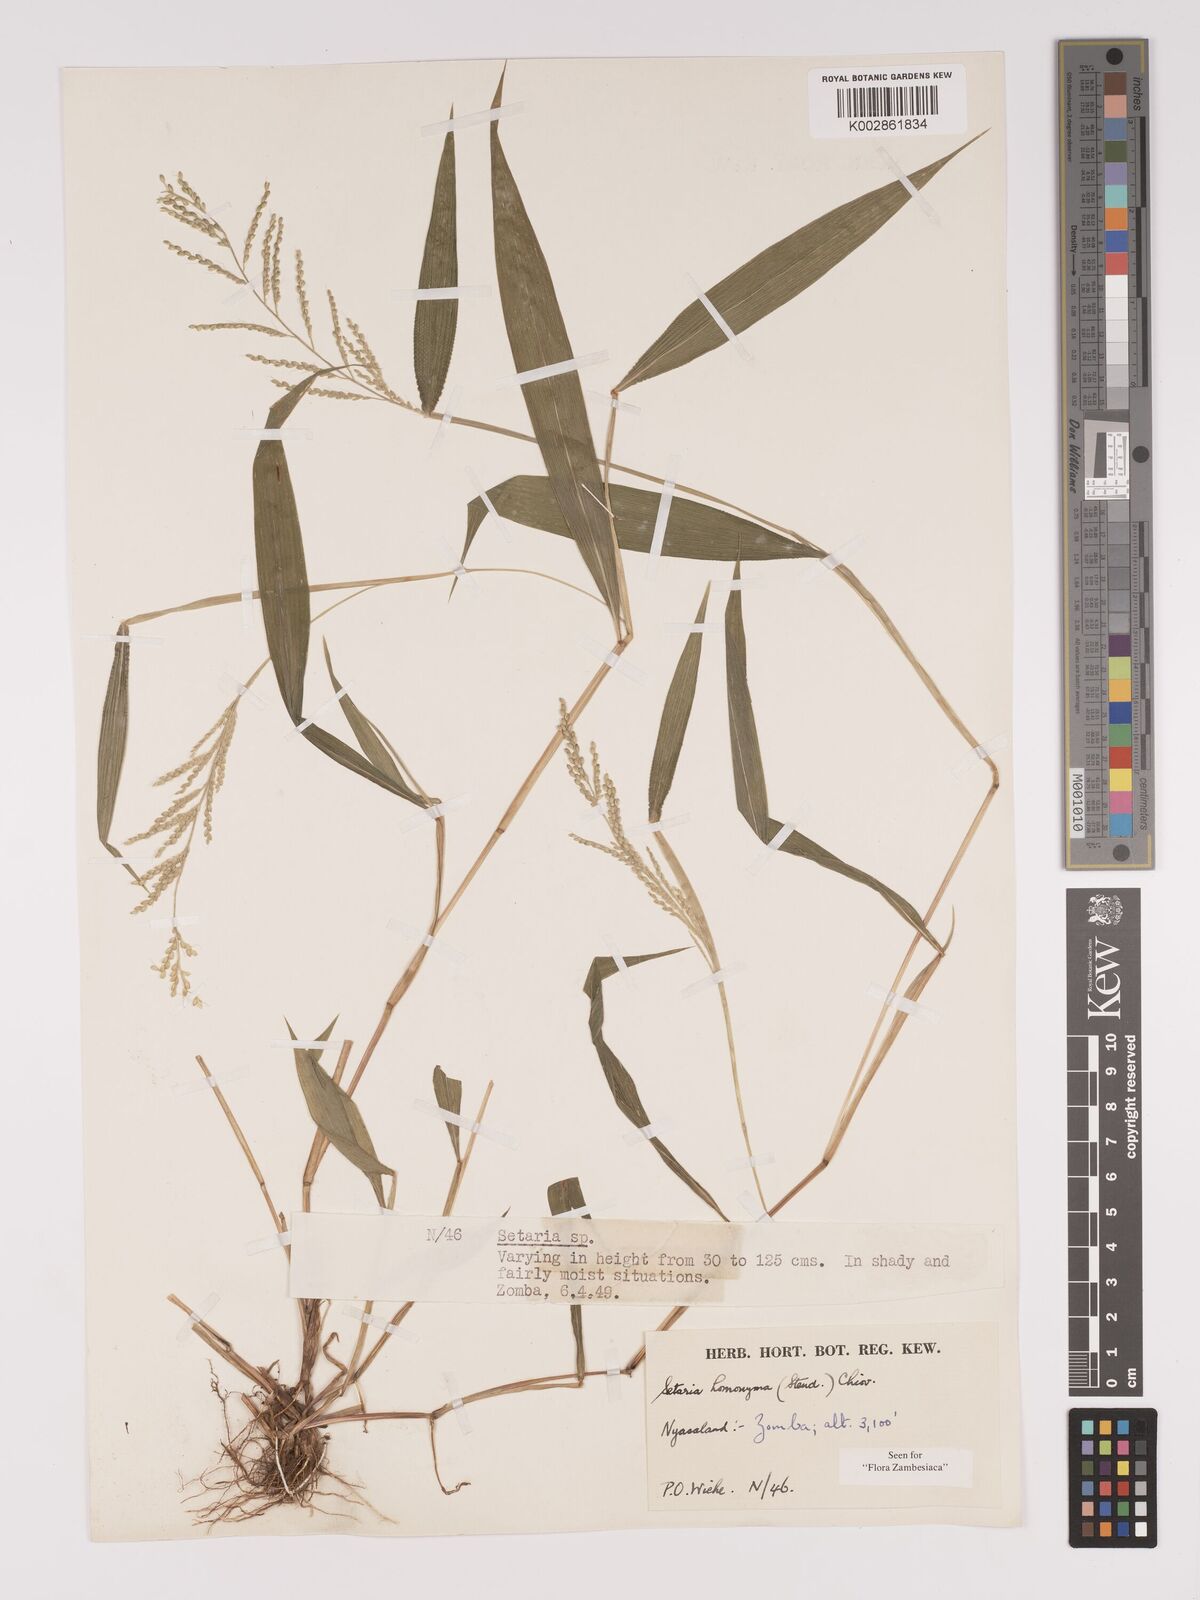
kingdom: Plantae
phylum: Tracheophyta
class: Liliopsida
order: Poales
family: Poaceae
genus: Setaria
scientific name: Setaria homonyma
